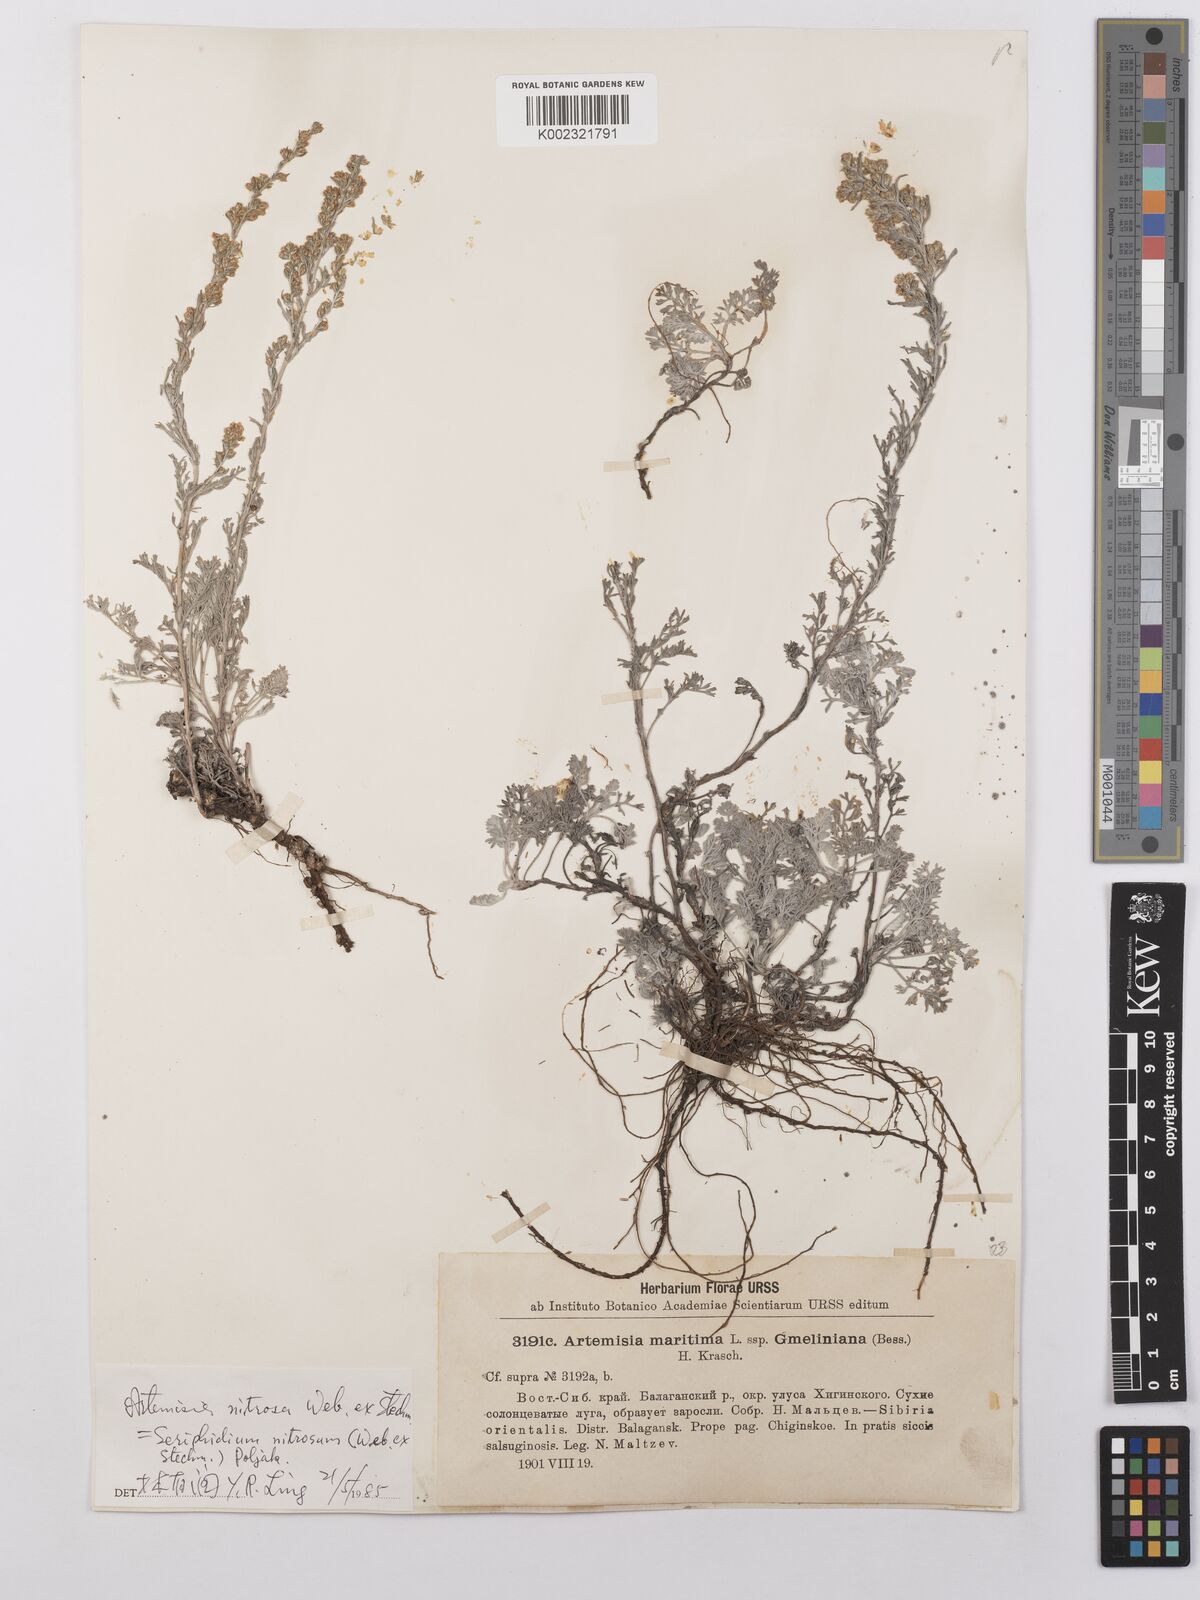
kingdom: Plantae
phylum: Tracheophyta
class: Magnoliopsida
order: Asterales
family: Asteraceae
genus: Artemisia
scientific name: Artemisia nitrosa
